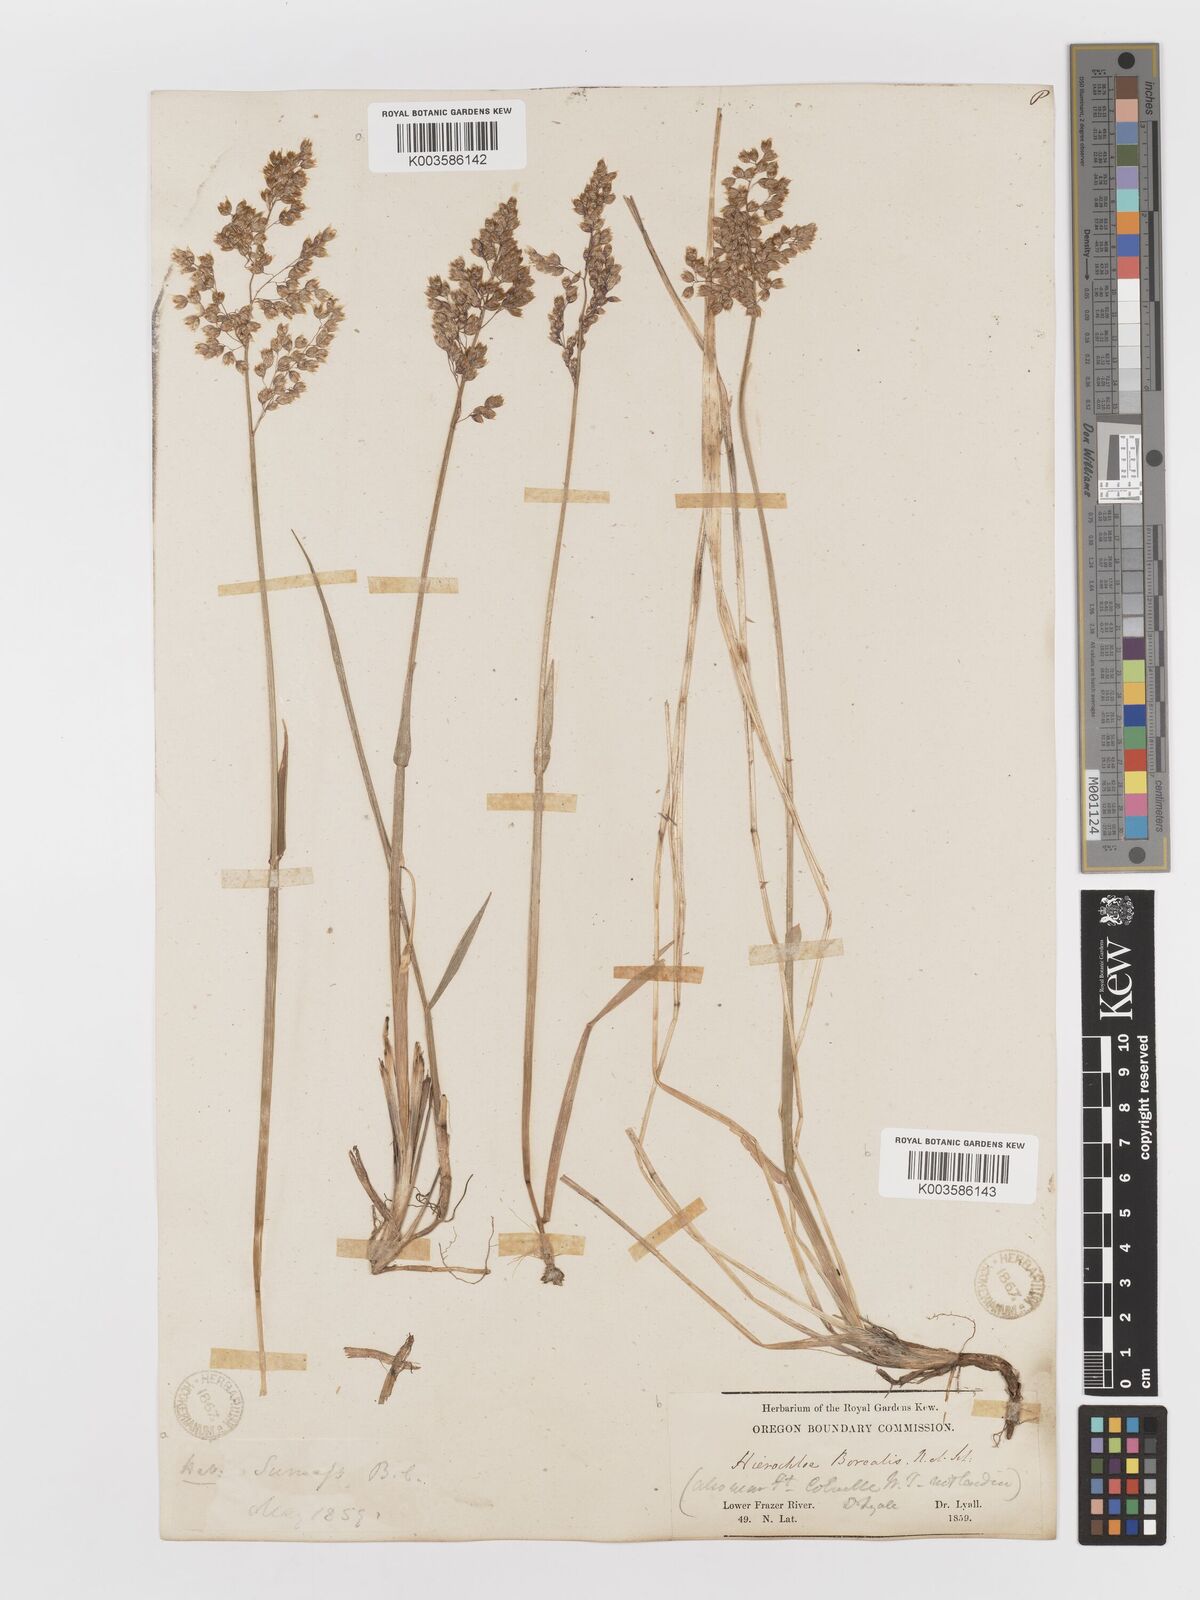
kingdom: Plantae
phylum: Tracheophyta
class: Liliopsida
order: Poales
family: Poaceae
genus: Anthoxanthum
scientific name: Anthoxanthum nitens
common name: Holy grass
